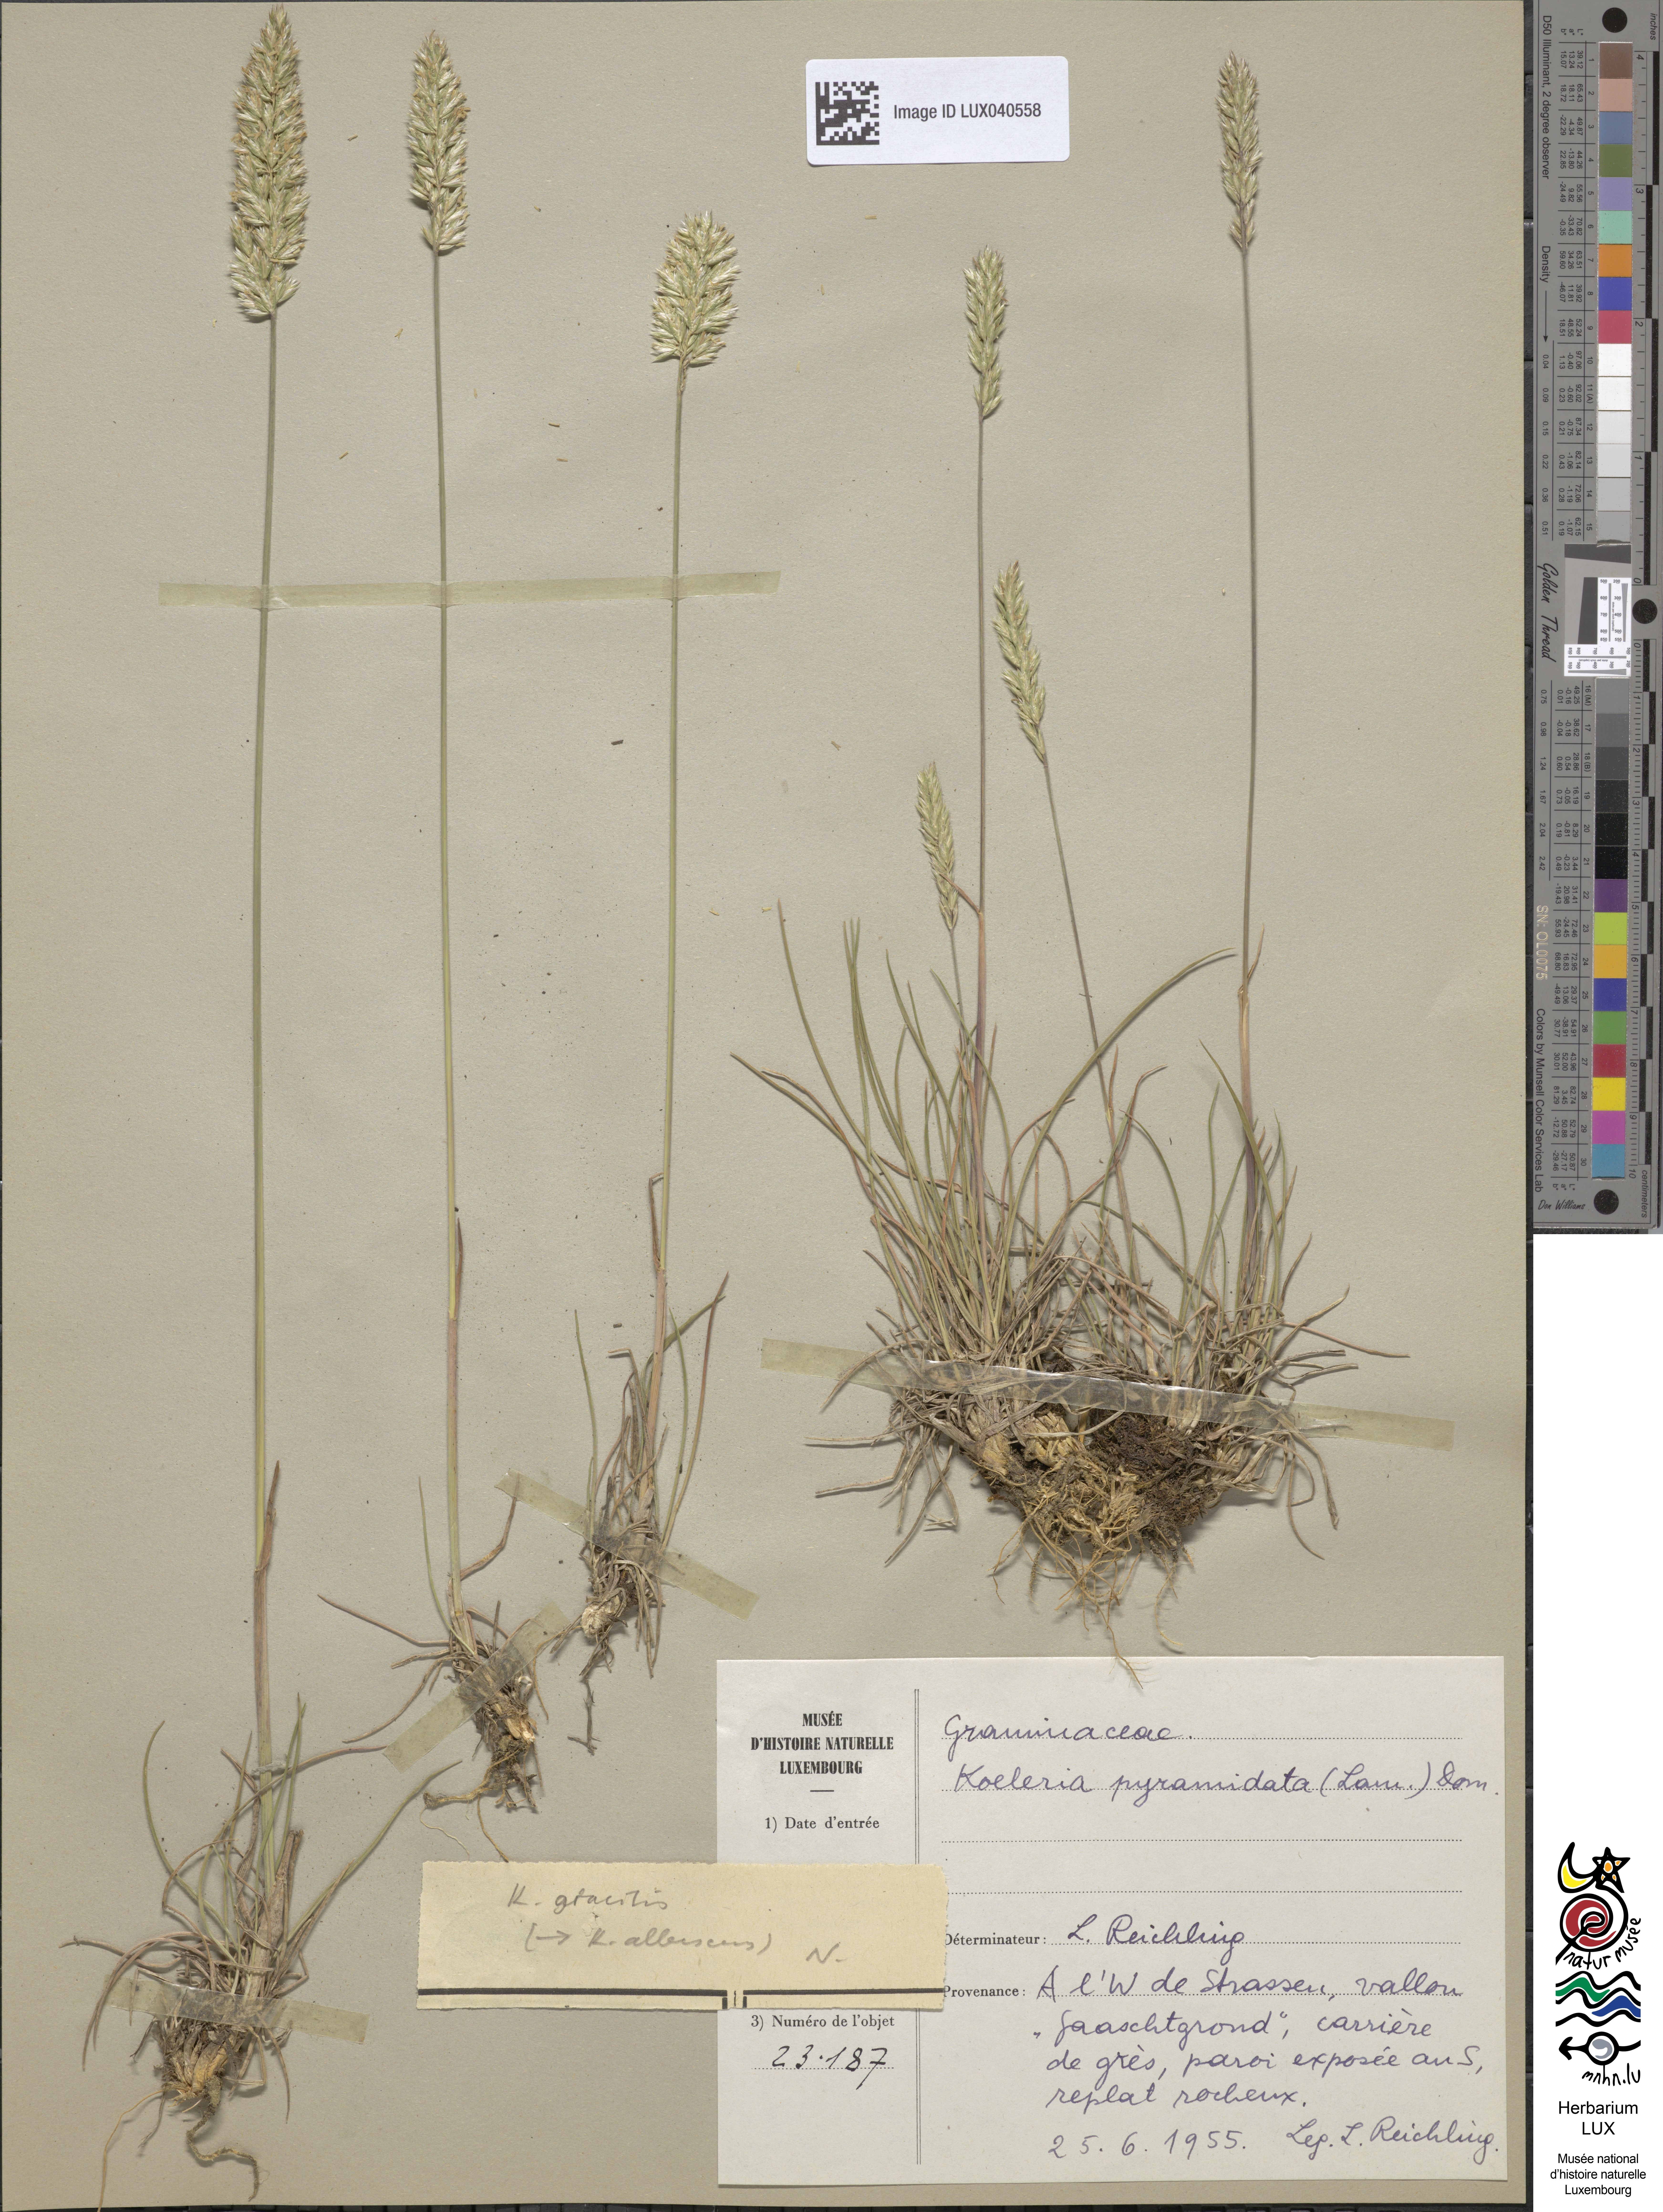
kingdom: Plantae
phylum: Tracheophyta
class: Liliopsida
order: Poales
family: Poaceae
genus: Koeleria
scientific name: Koeleria pyramidata
